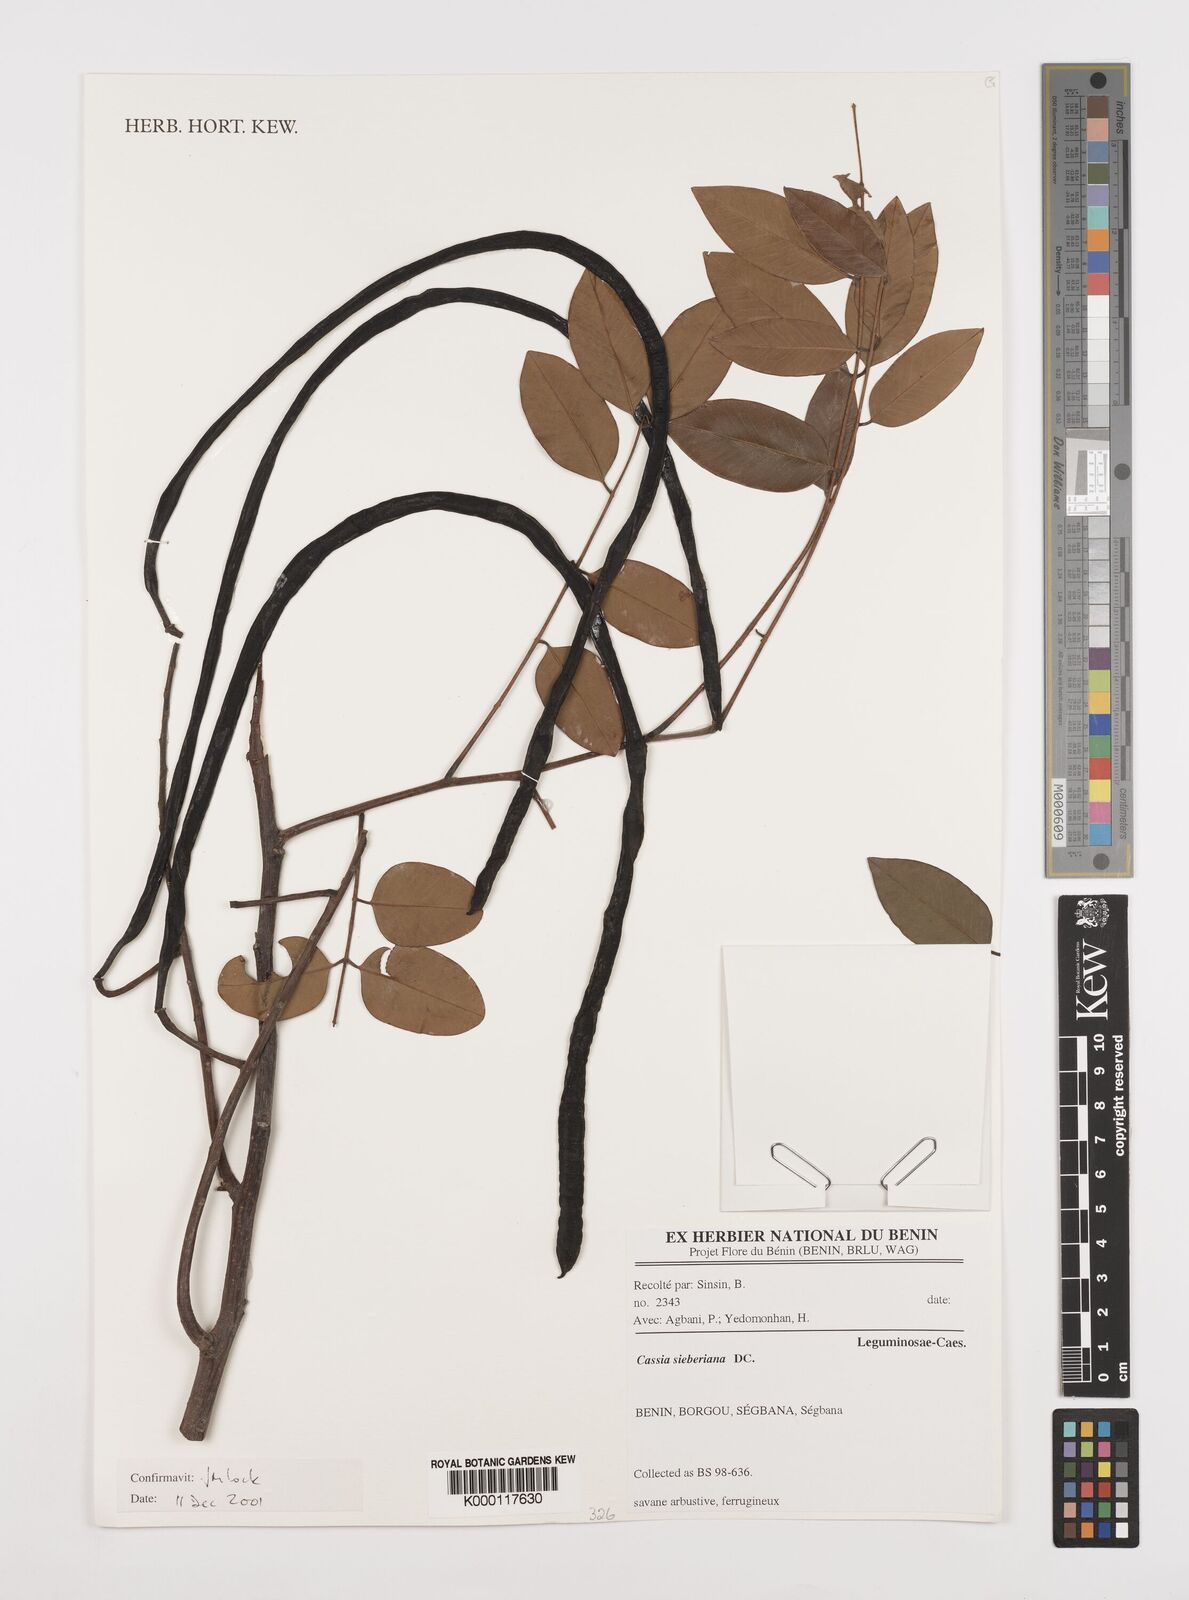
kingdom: Plantae
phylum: Tracheophyta
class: Magnoliopsida
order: Fabales
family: Fabaceae
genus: Cassia
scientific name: Cassia sieberiana
